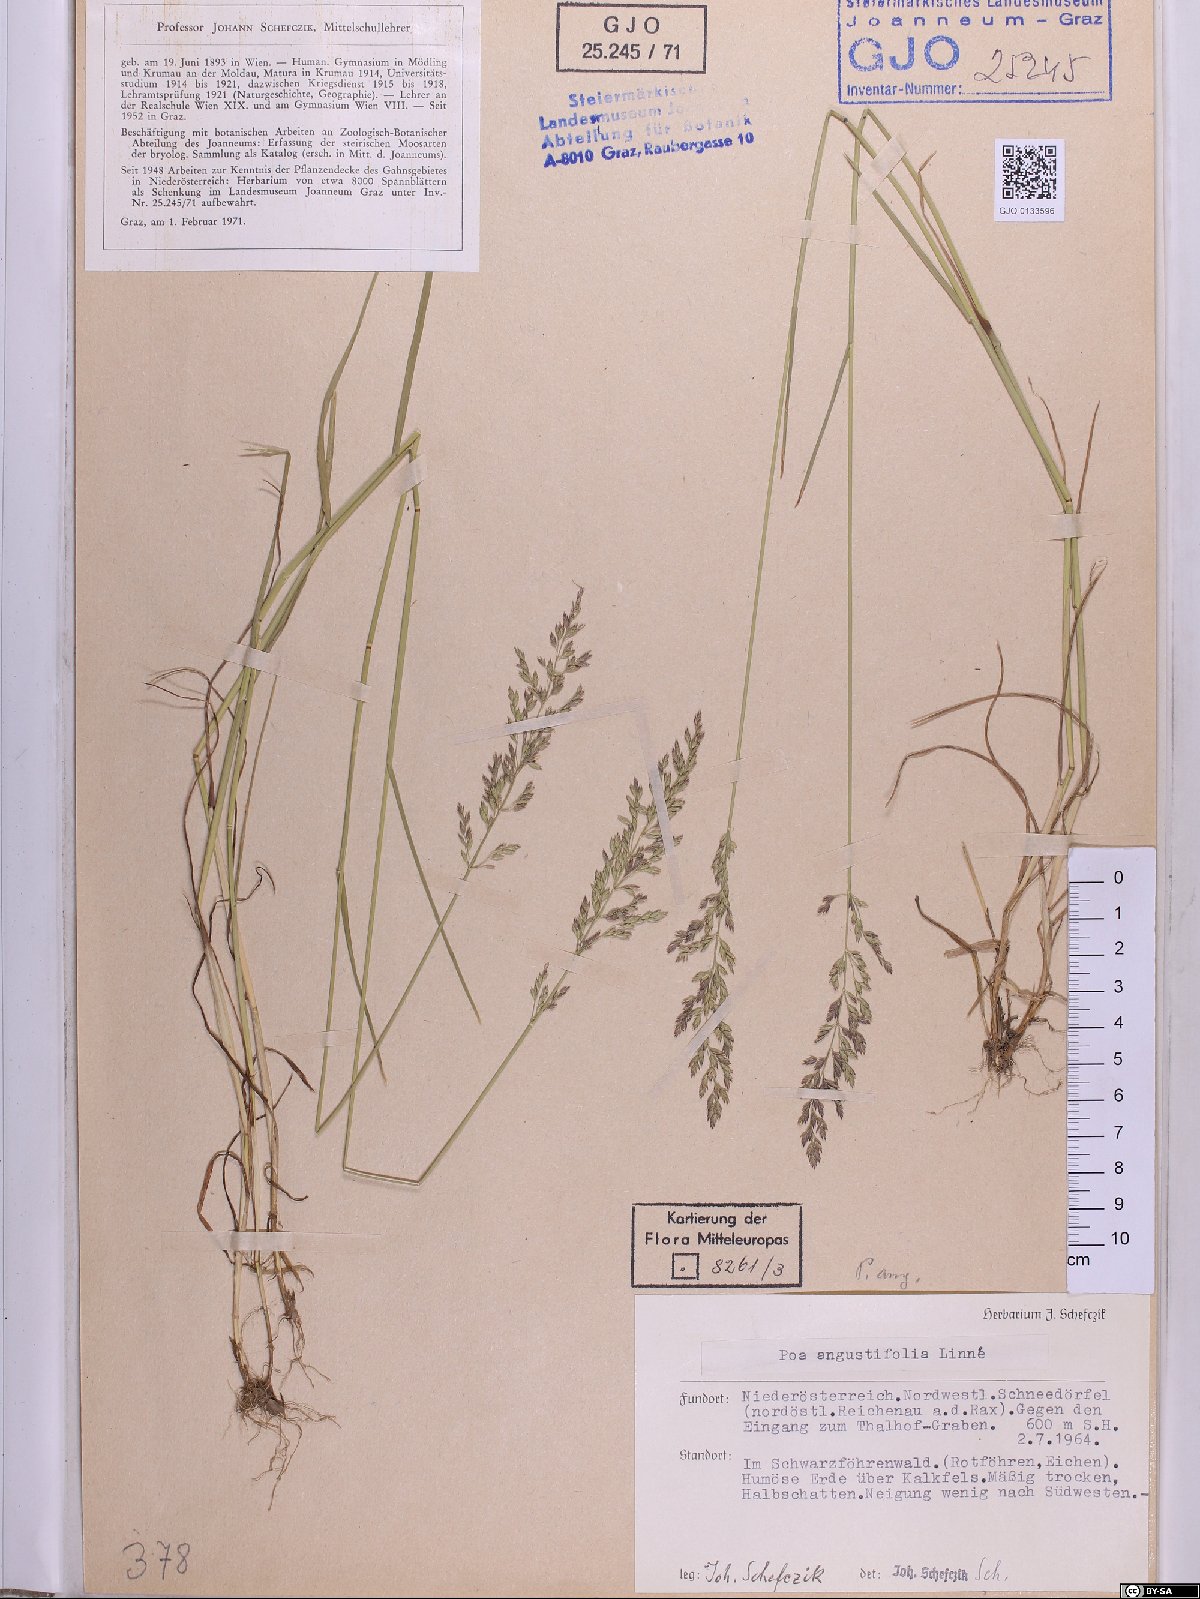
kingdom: Plantae
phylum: Tracheophyta
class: Liliopsida
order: Poales
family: Poaceae
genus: Poa
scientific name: Poa angustifolia
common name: Narrow-leaved meadow-grass
